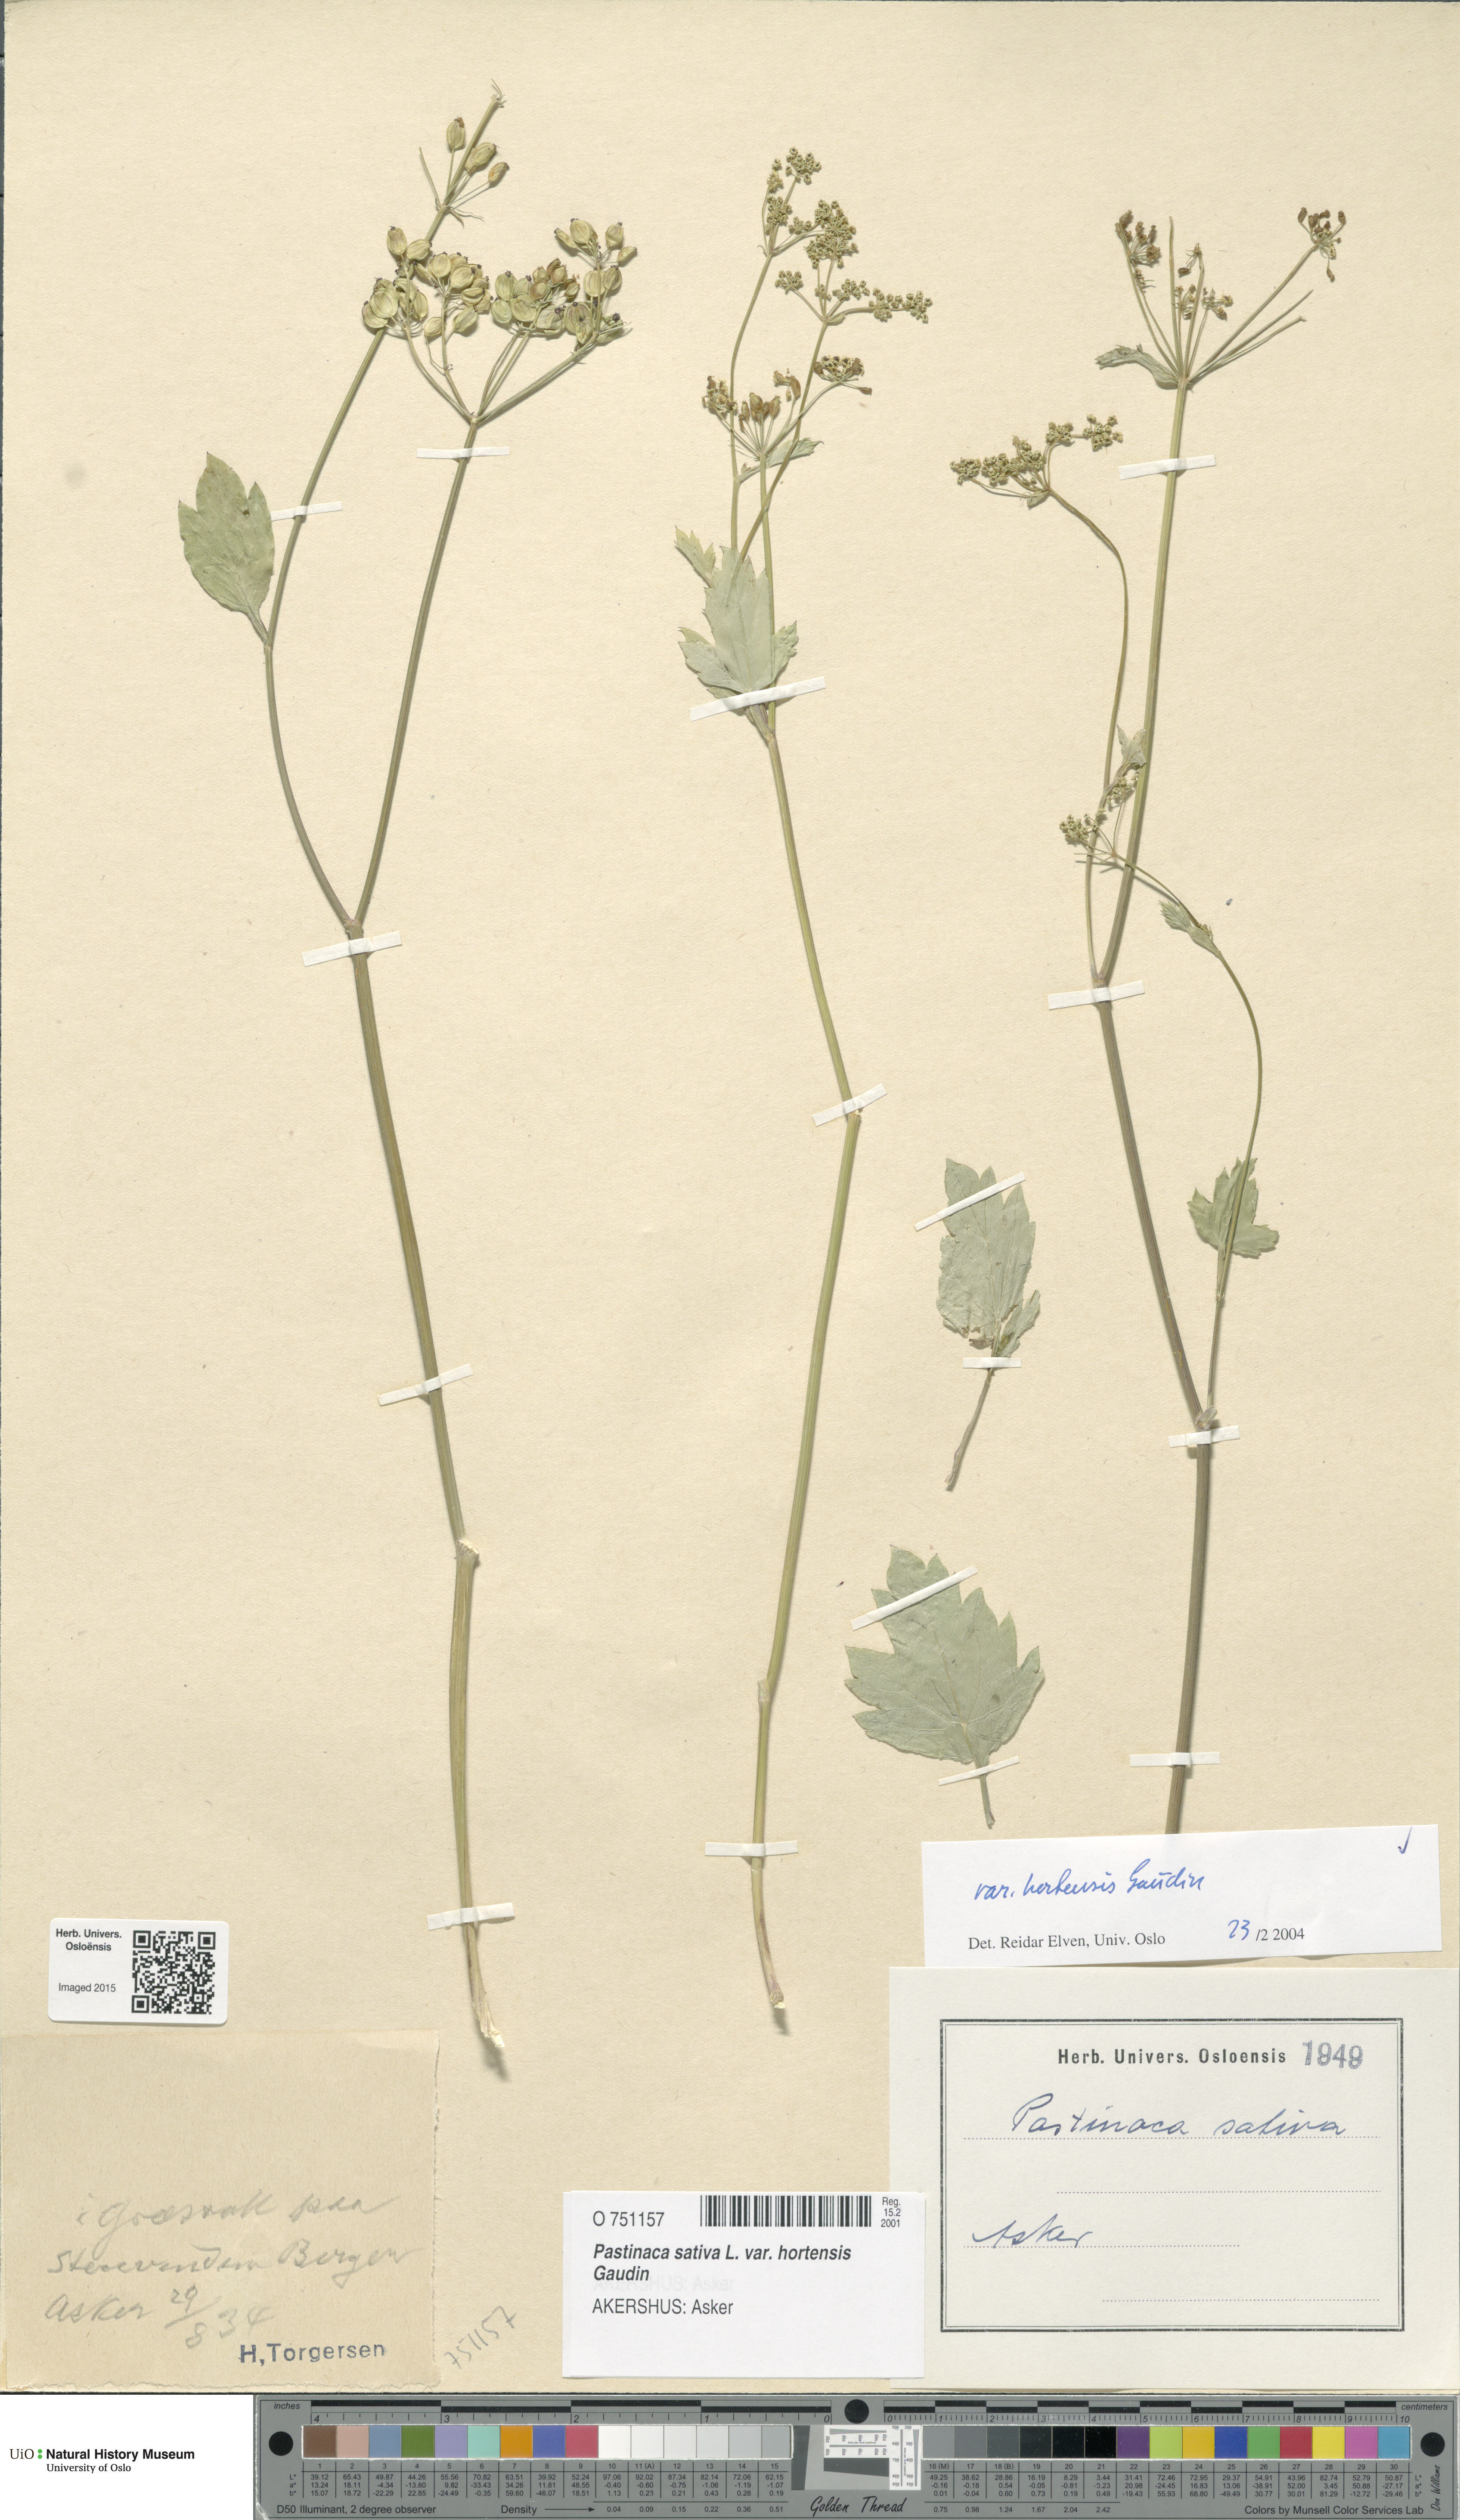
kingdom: Plantae
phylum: Tracheophyta
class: Magnoliopsida
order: Apiales
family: Apiaceae
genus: Pastinaca
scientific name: Pastinaca sativa
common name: Wild parsnip
